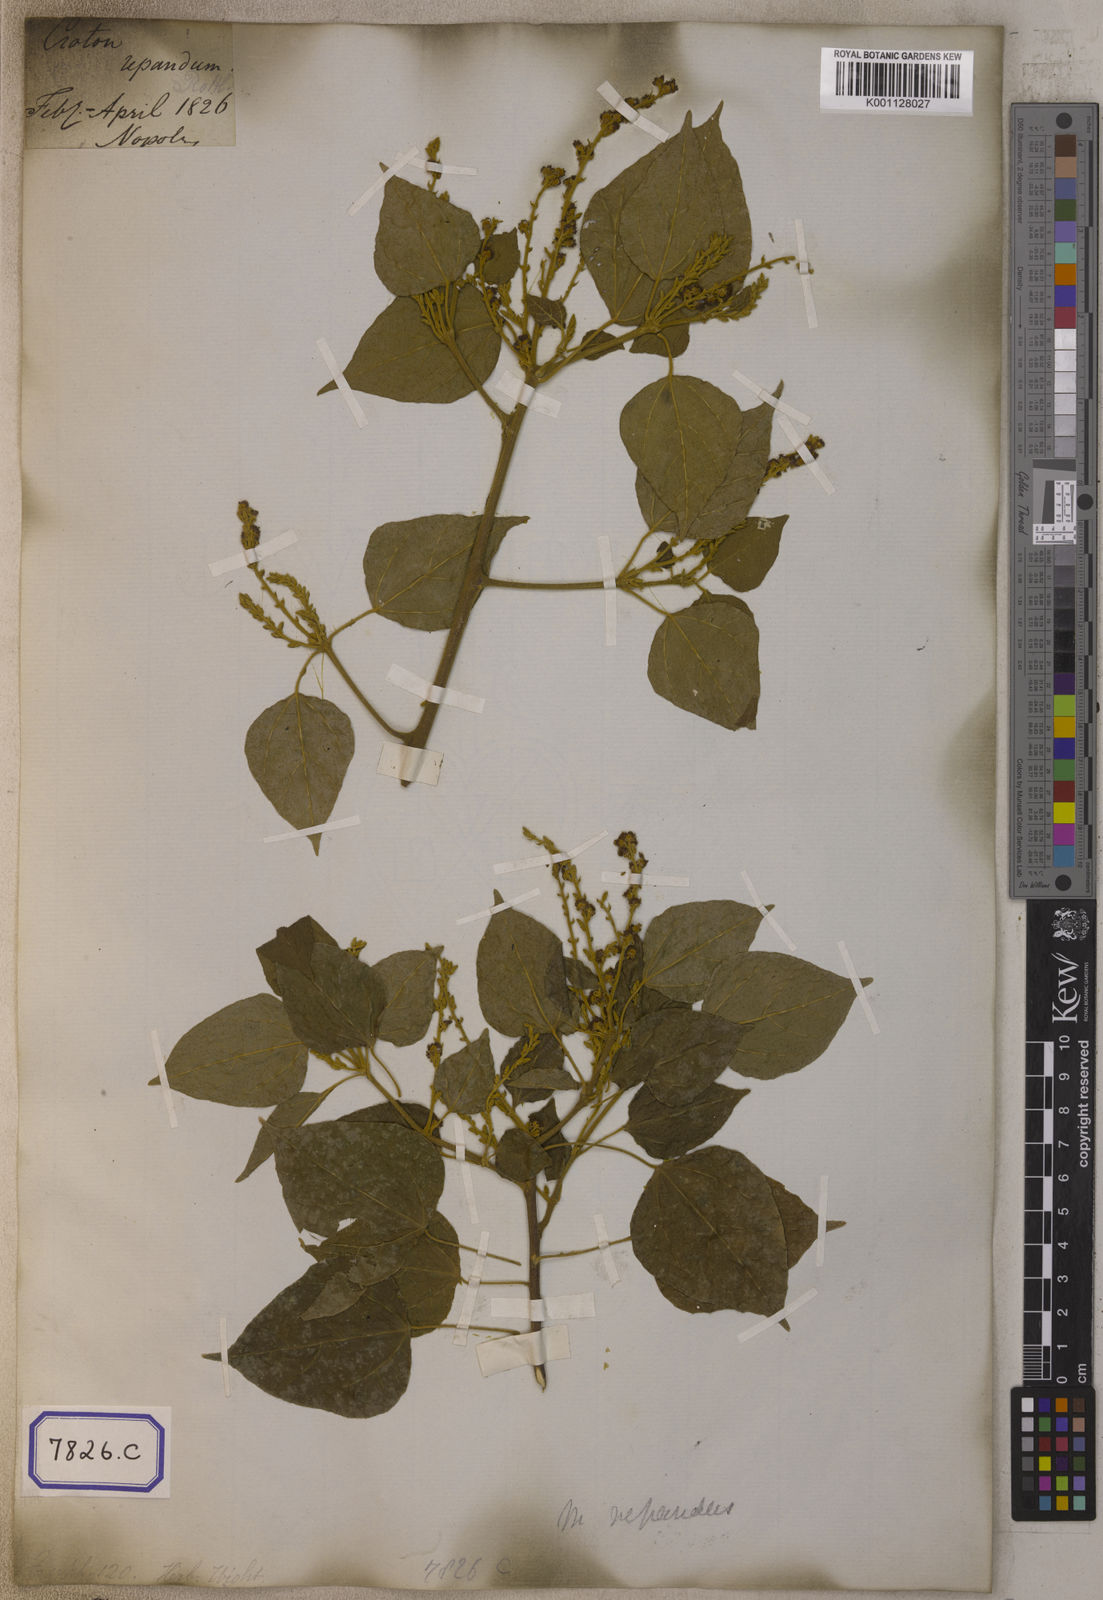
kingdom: Plantae
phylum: Tracheophyta
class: Magnoliopsida
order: Malpighiales
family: Euphorbiaceae
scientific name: Euphorbiaceae
